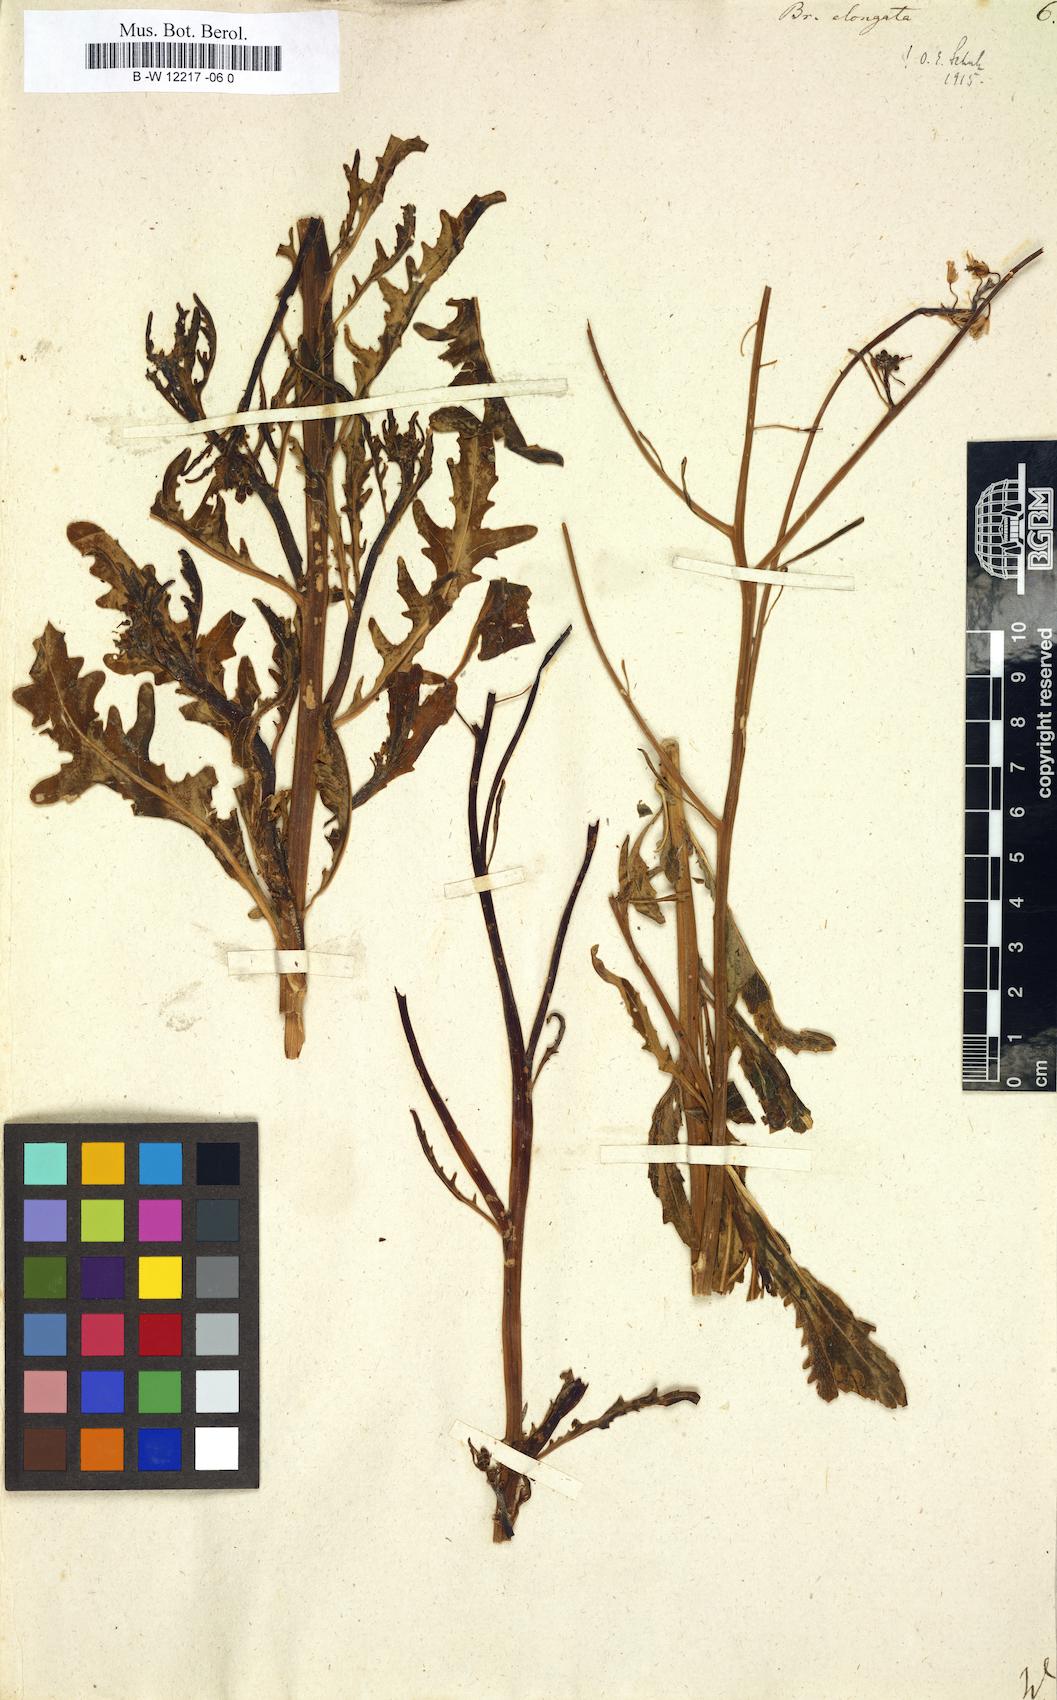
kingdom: Plantae
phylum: Tracheophyta
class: Magnoliopsida
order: Brassicales
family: Brassicaceae
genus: Brassica
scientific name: Brassica elongata
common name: Long-stalked rape
